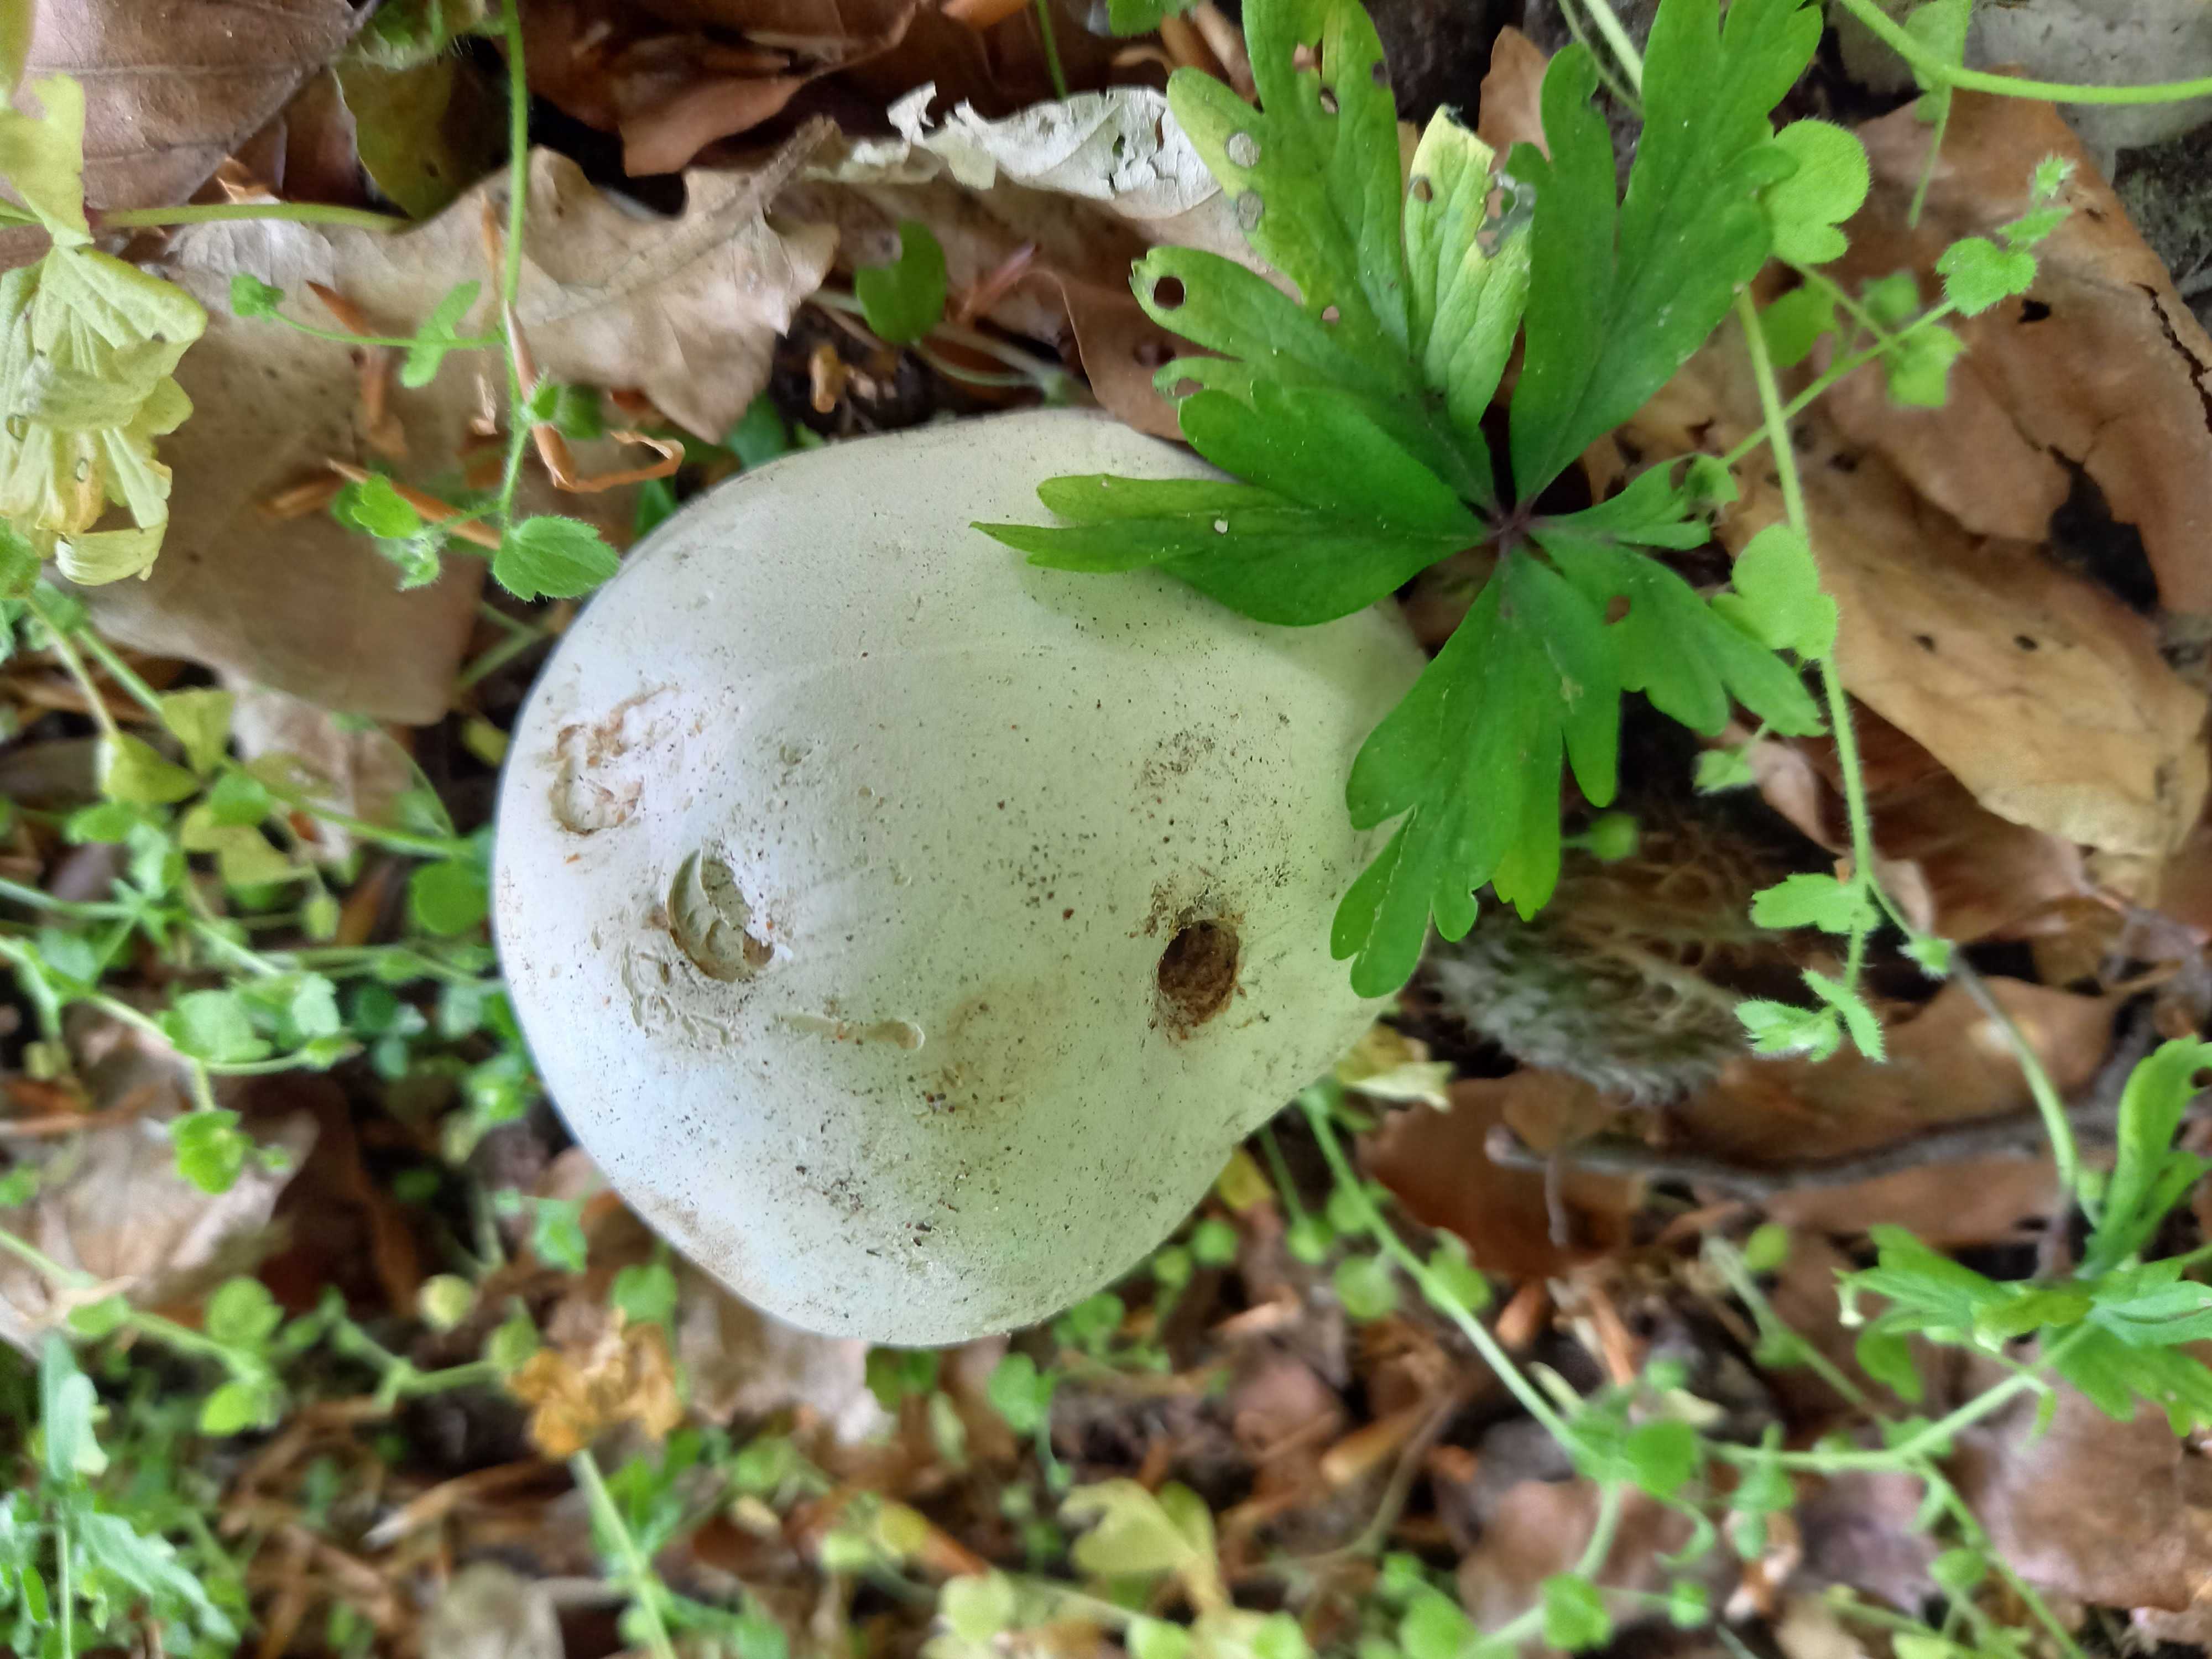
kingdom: Fungi
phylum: Basidiomycota
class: Agaricomycetes
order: Agaricales
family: Lycoperdaceae
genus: Calvatia
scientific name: Calvatia gigantea
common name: kæmpestøvbold
